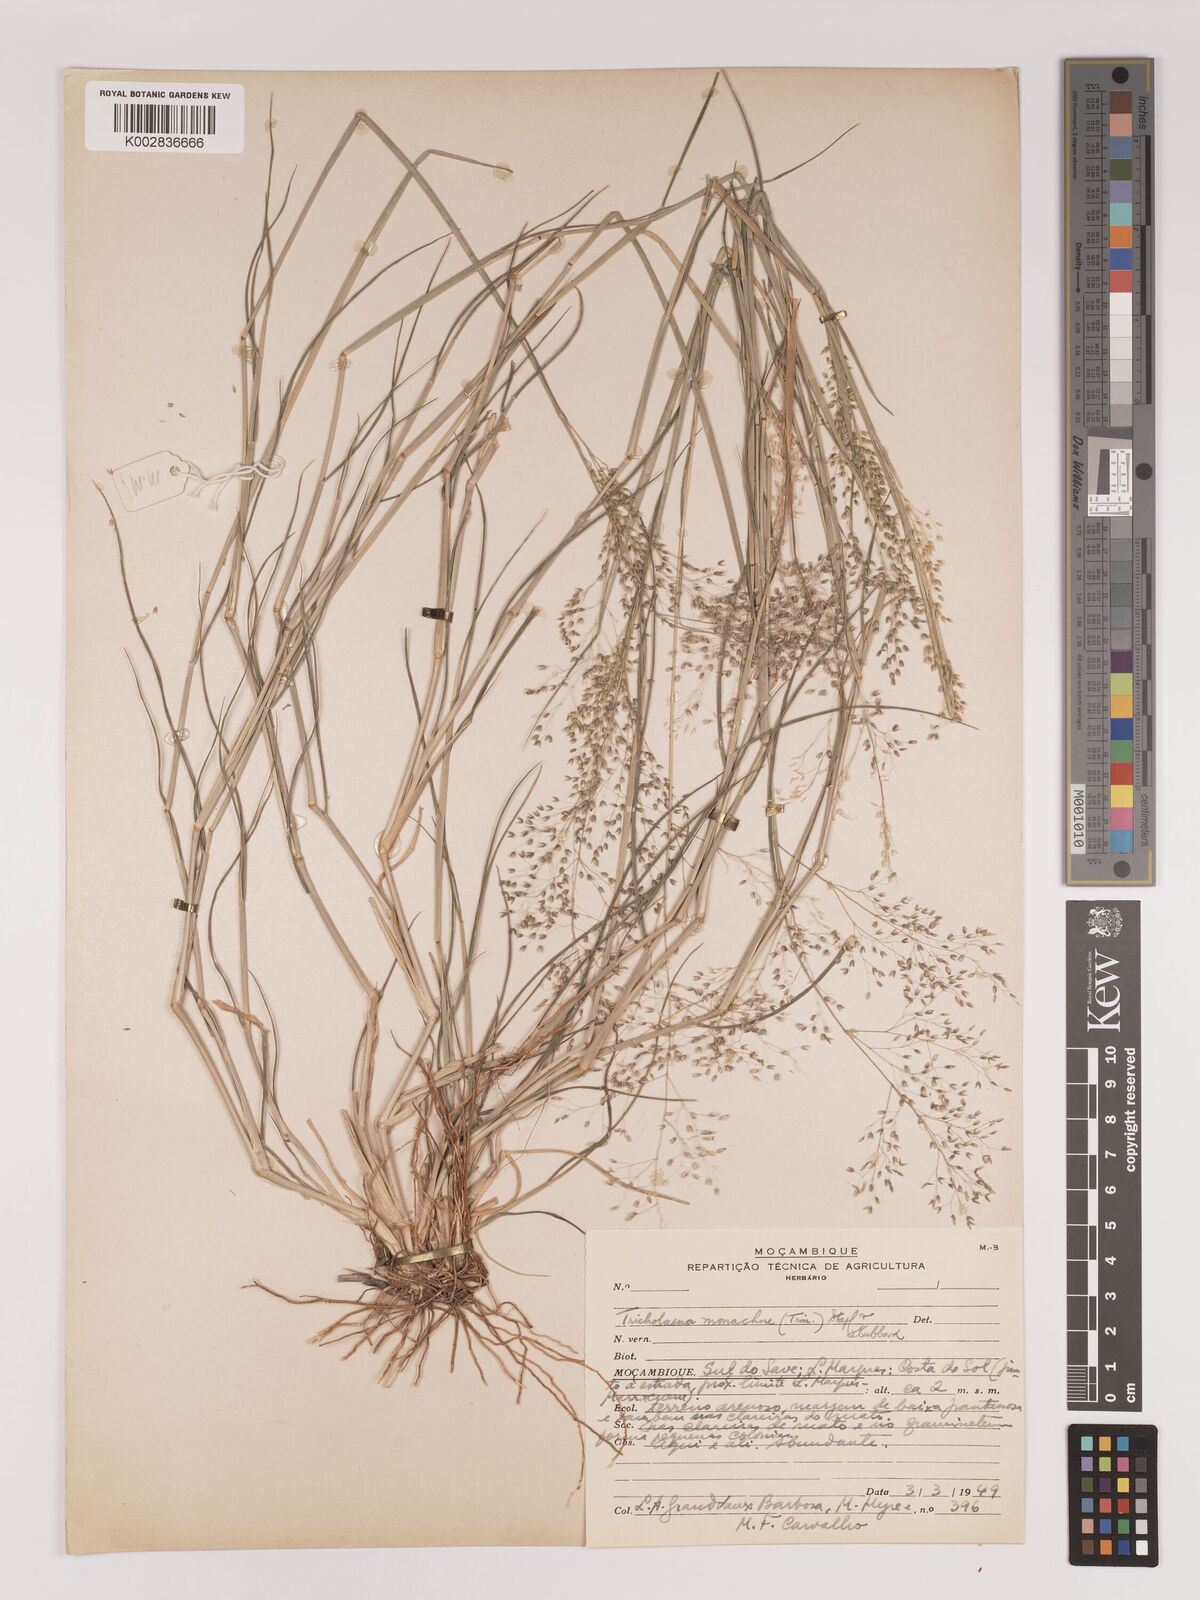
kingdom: Plantae
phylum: Tracheophyta
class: Liliopsida
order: Poales
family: Poaceae
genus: Tricholaena
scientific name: Tricholaena monachne
